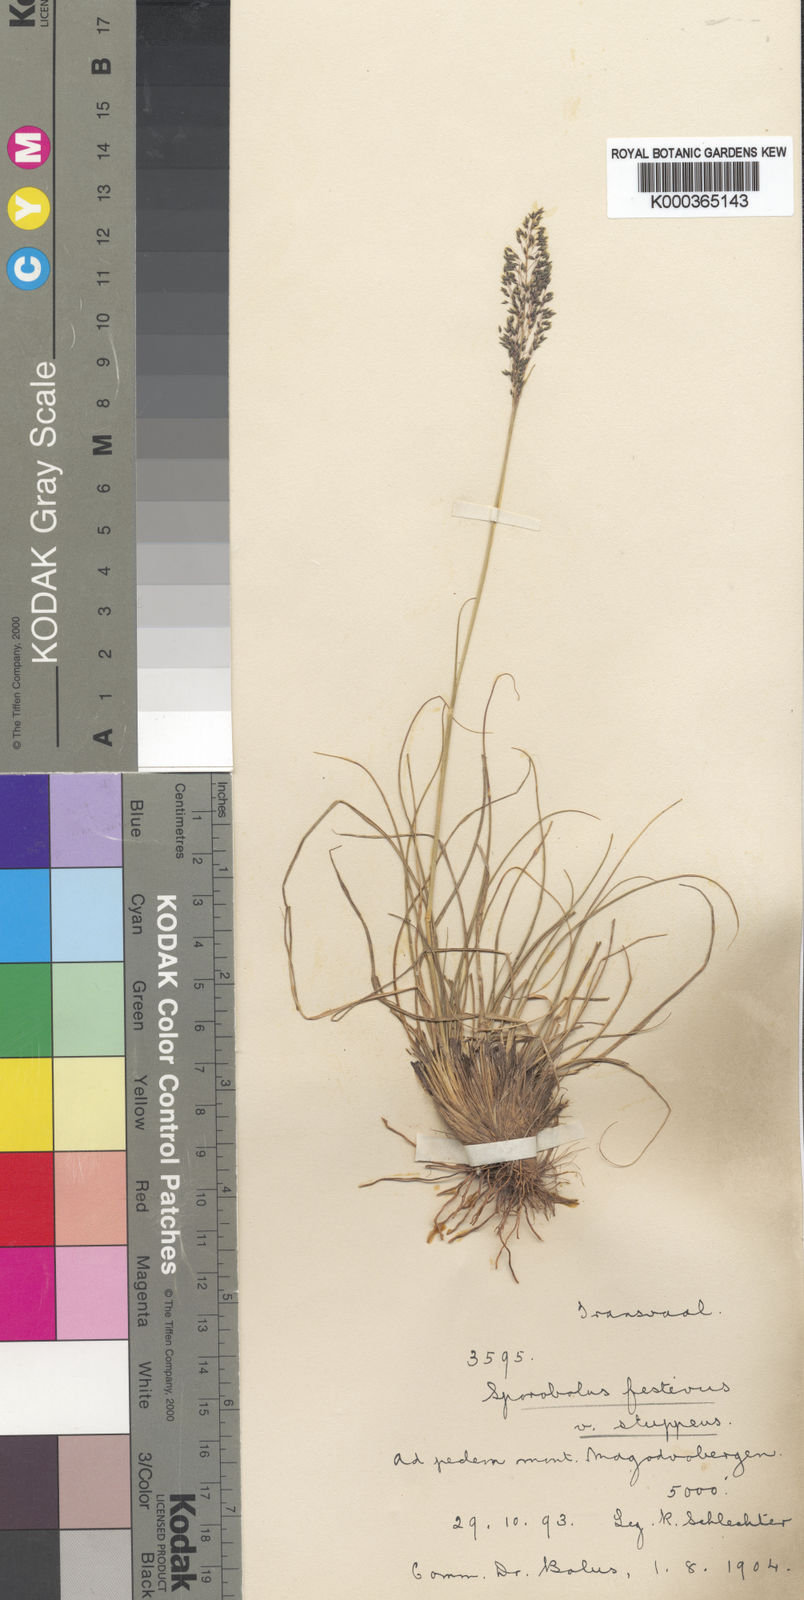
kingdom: Plantae
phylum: Tracheophyta
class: Liliopsida
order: Poales
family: Poaceae
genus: Sporobolus
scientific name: Sporobolus stapfianus
